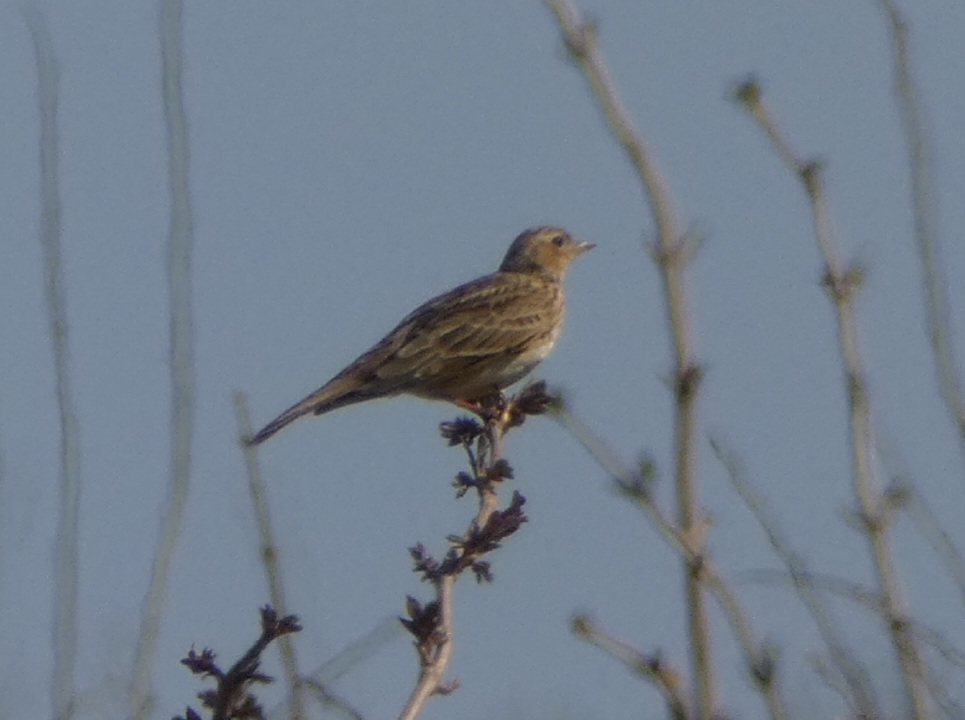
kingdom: Animalia
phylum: Chordata
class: Aves
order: Passeriformes
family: Alaudidae
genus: Alauda
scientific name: Alauda arvensis
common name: Sanglærke
